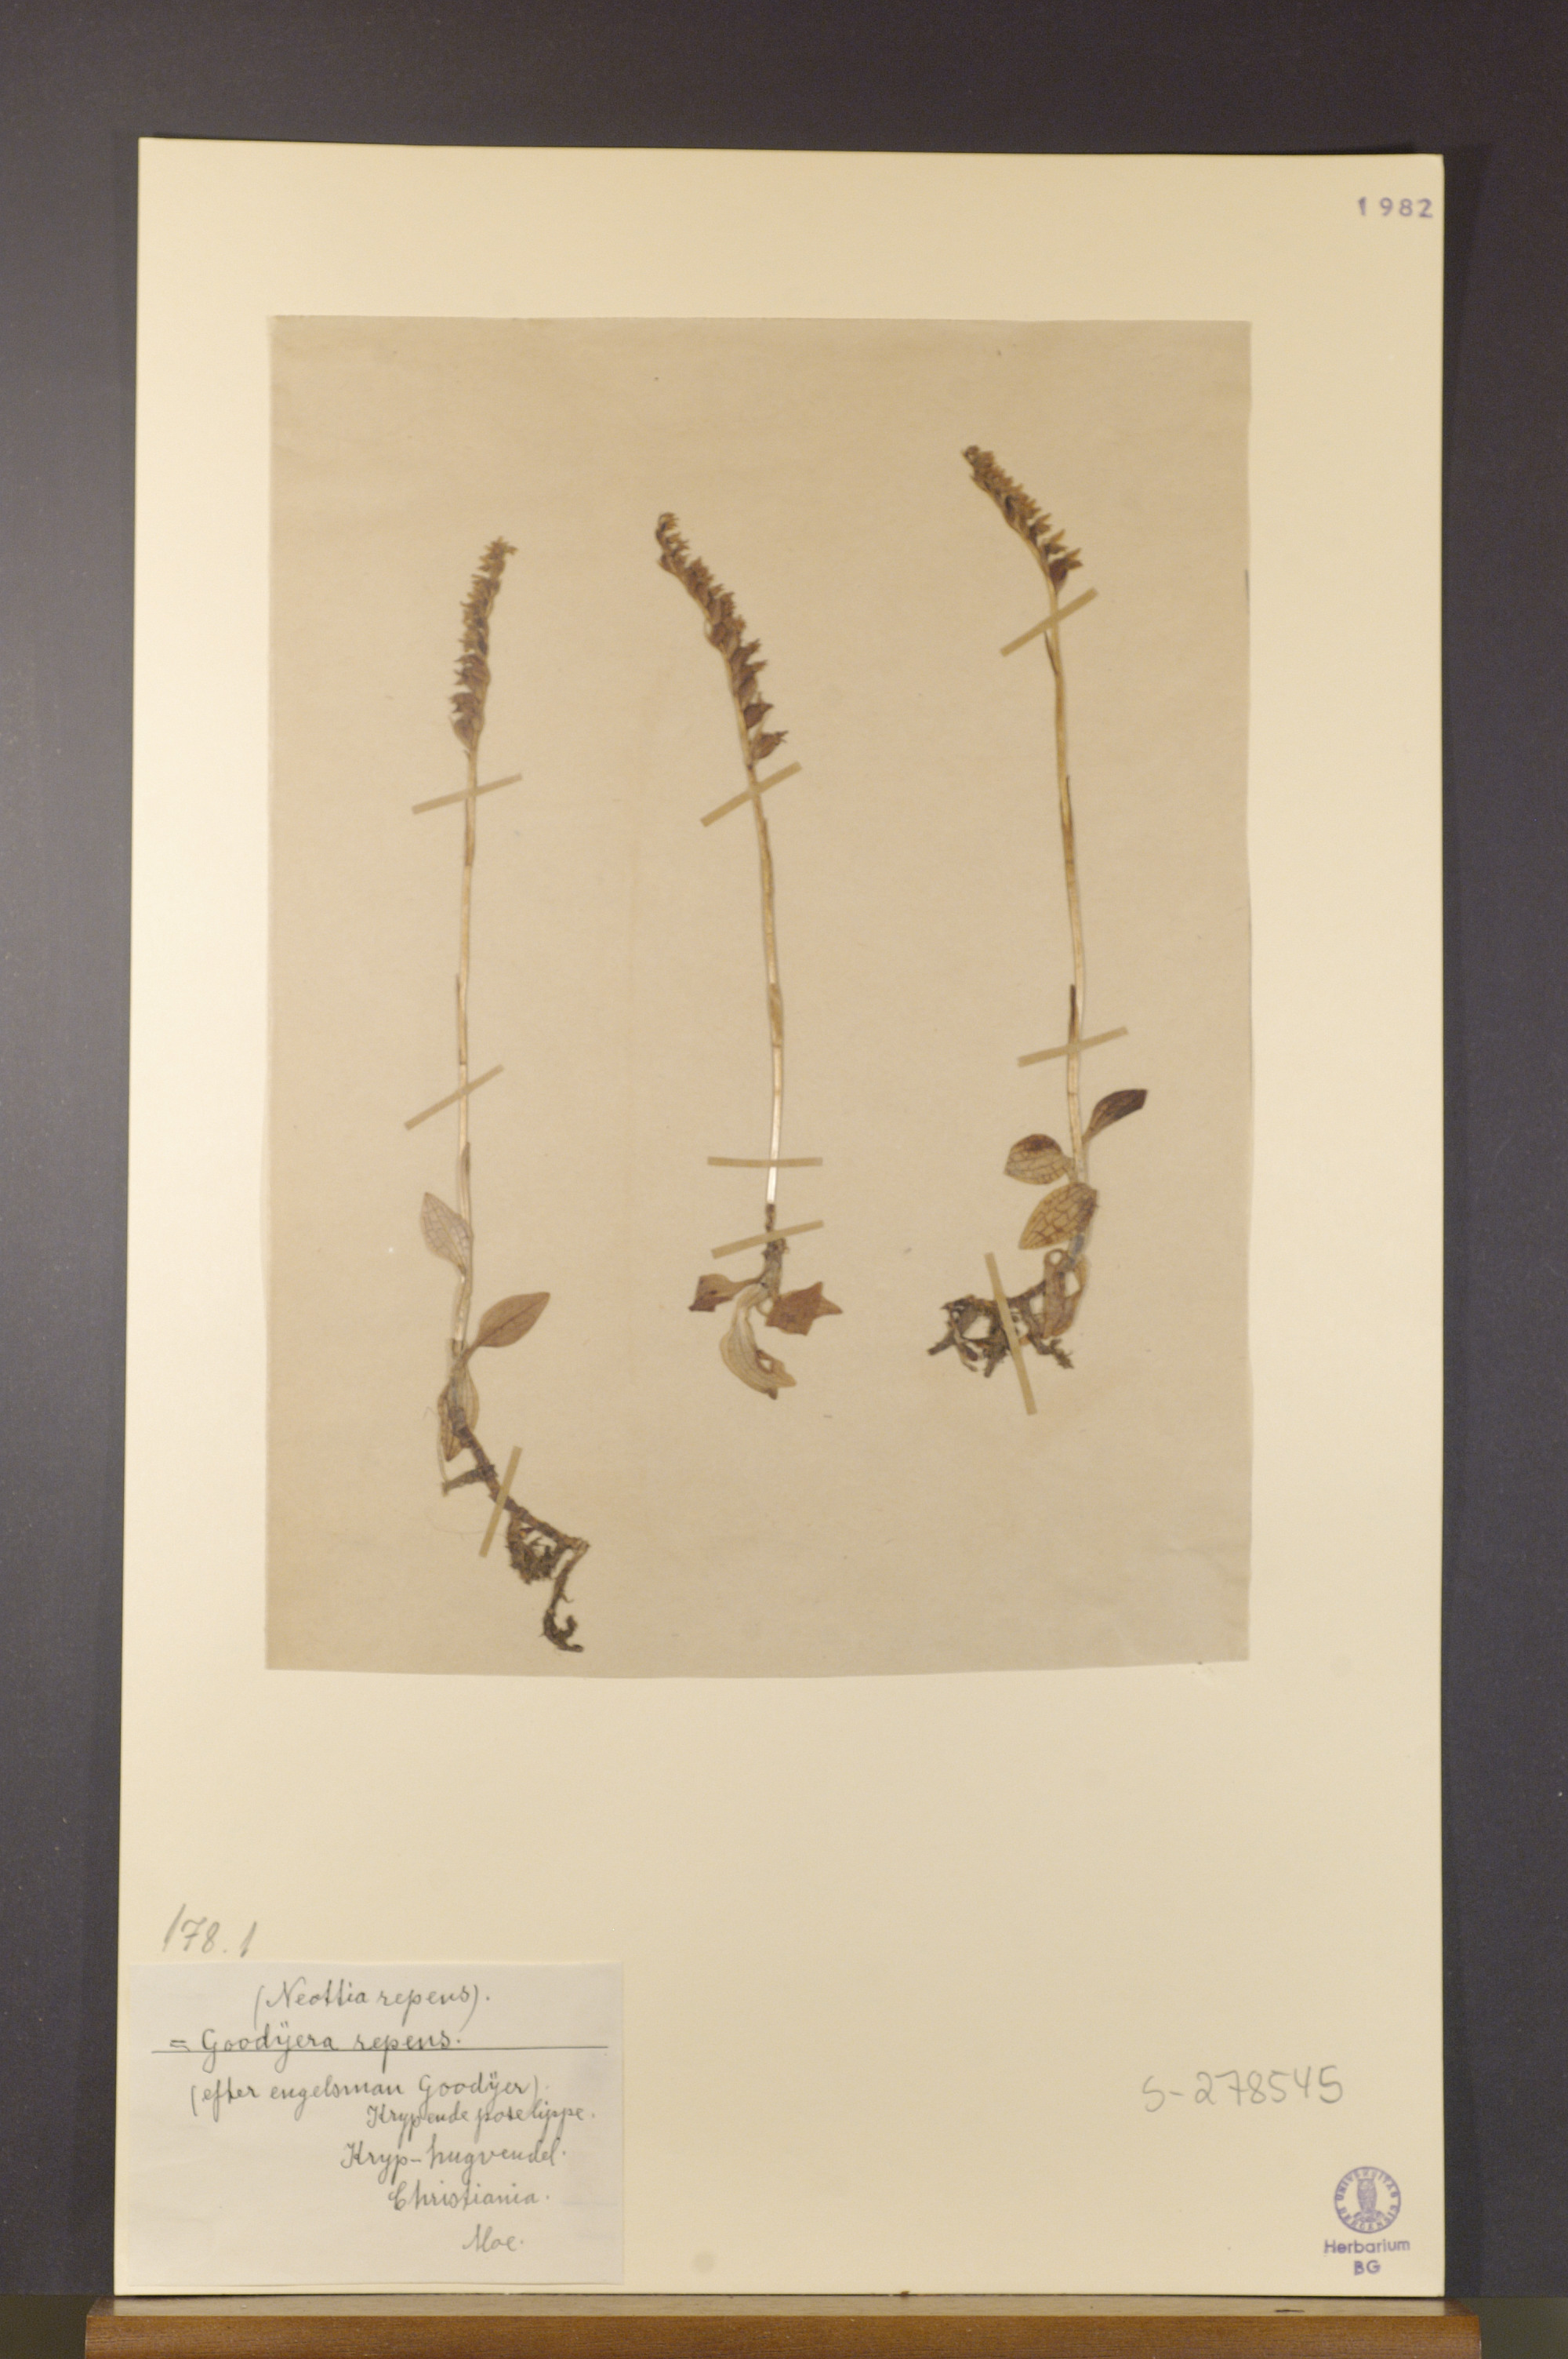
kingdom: Plantae
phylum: Tracheophyta
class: Liliopsida
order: Asparagales
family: Orchidaceae
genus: Goodyera
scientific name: Goodyera repens
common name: Creeping lady's-tresses
